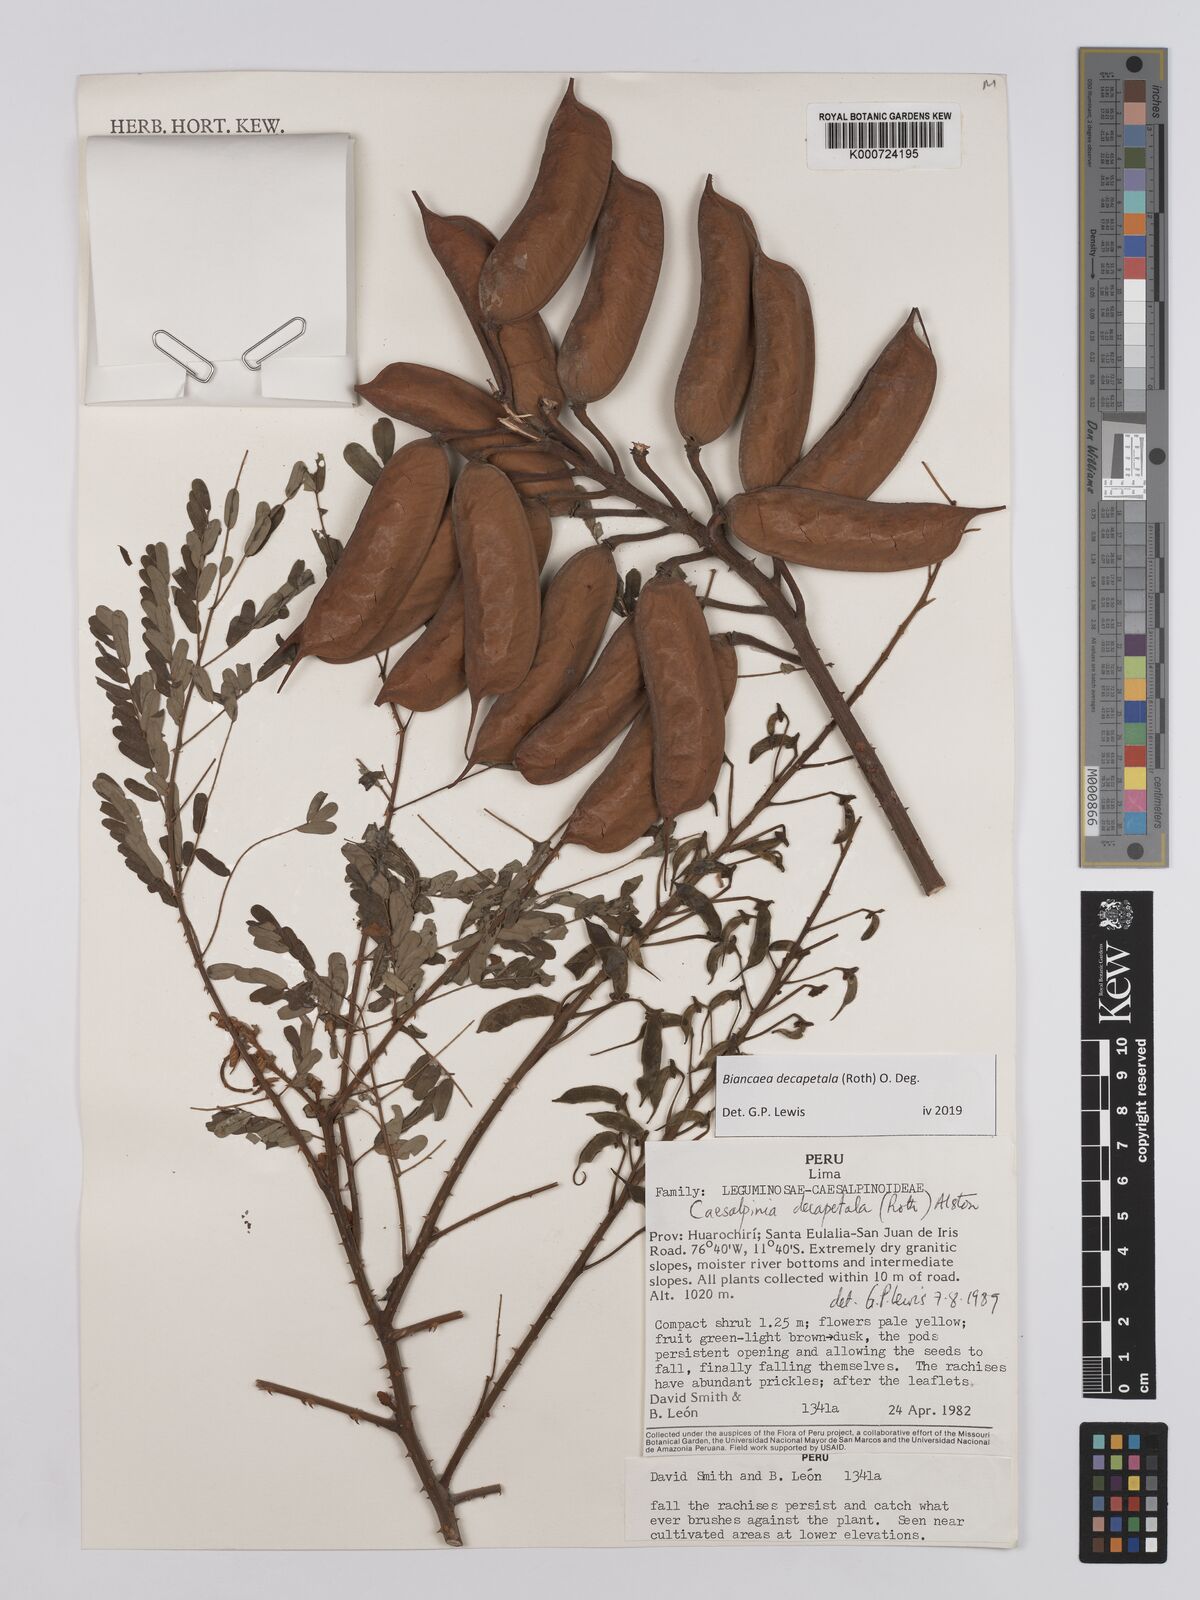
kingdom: Plantae
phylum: Tracheophyta
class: Magnoliopsida
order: Fabales
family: Fabaceae
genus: Biancaea
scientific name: Biancaea decapetala
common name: Cat's claw
